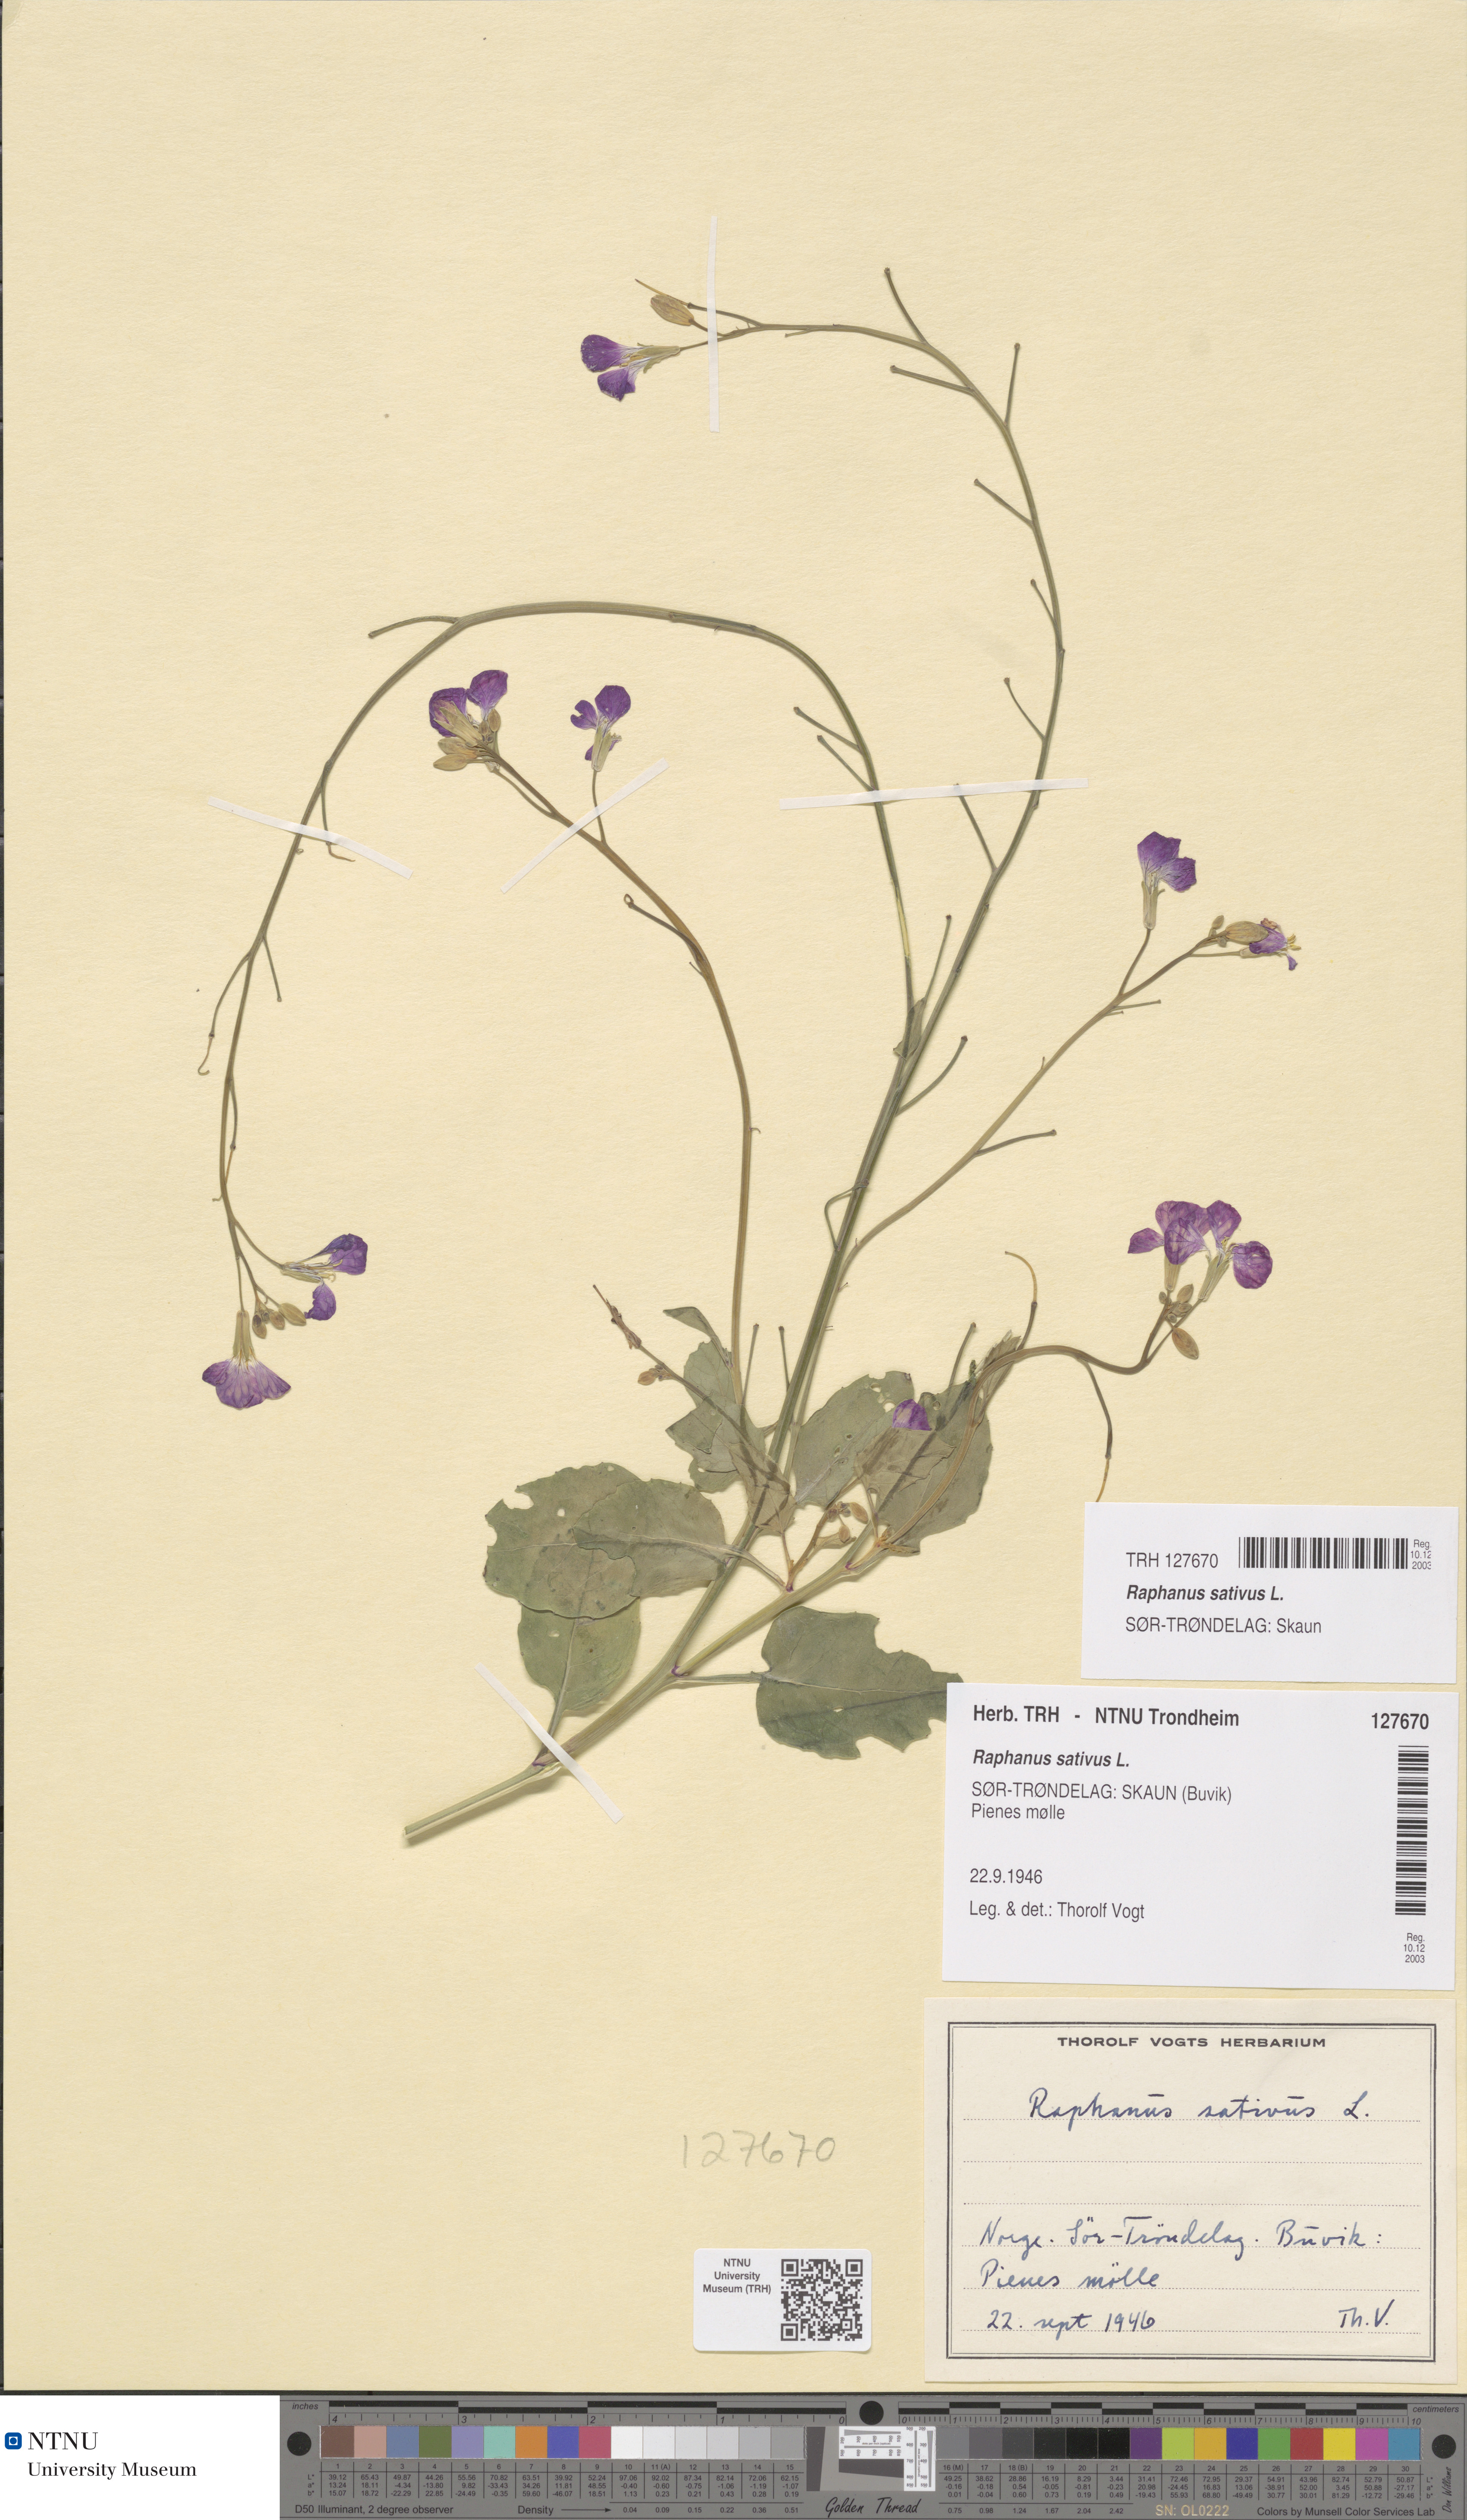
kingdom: Plantae
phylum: Tracheophyta
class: Magnoliopsida
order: Brassicales
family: Brassicaceae
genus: Raphanus
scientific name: Raphanus sativus
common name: Cultivated radish
